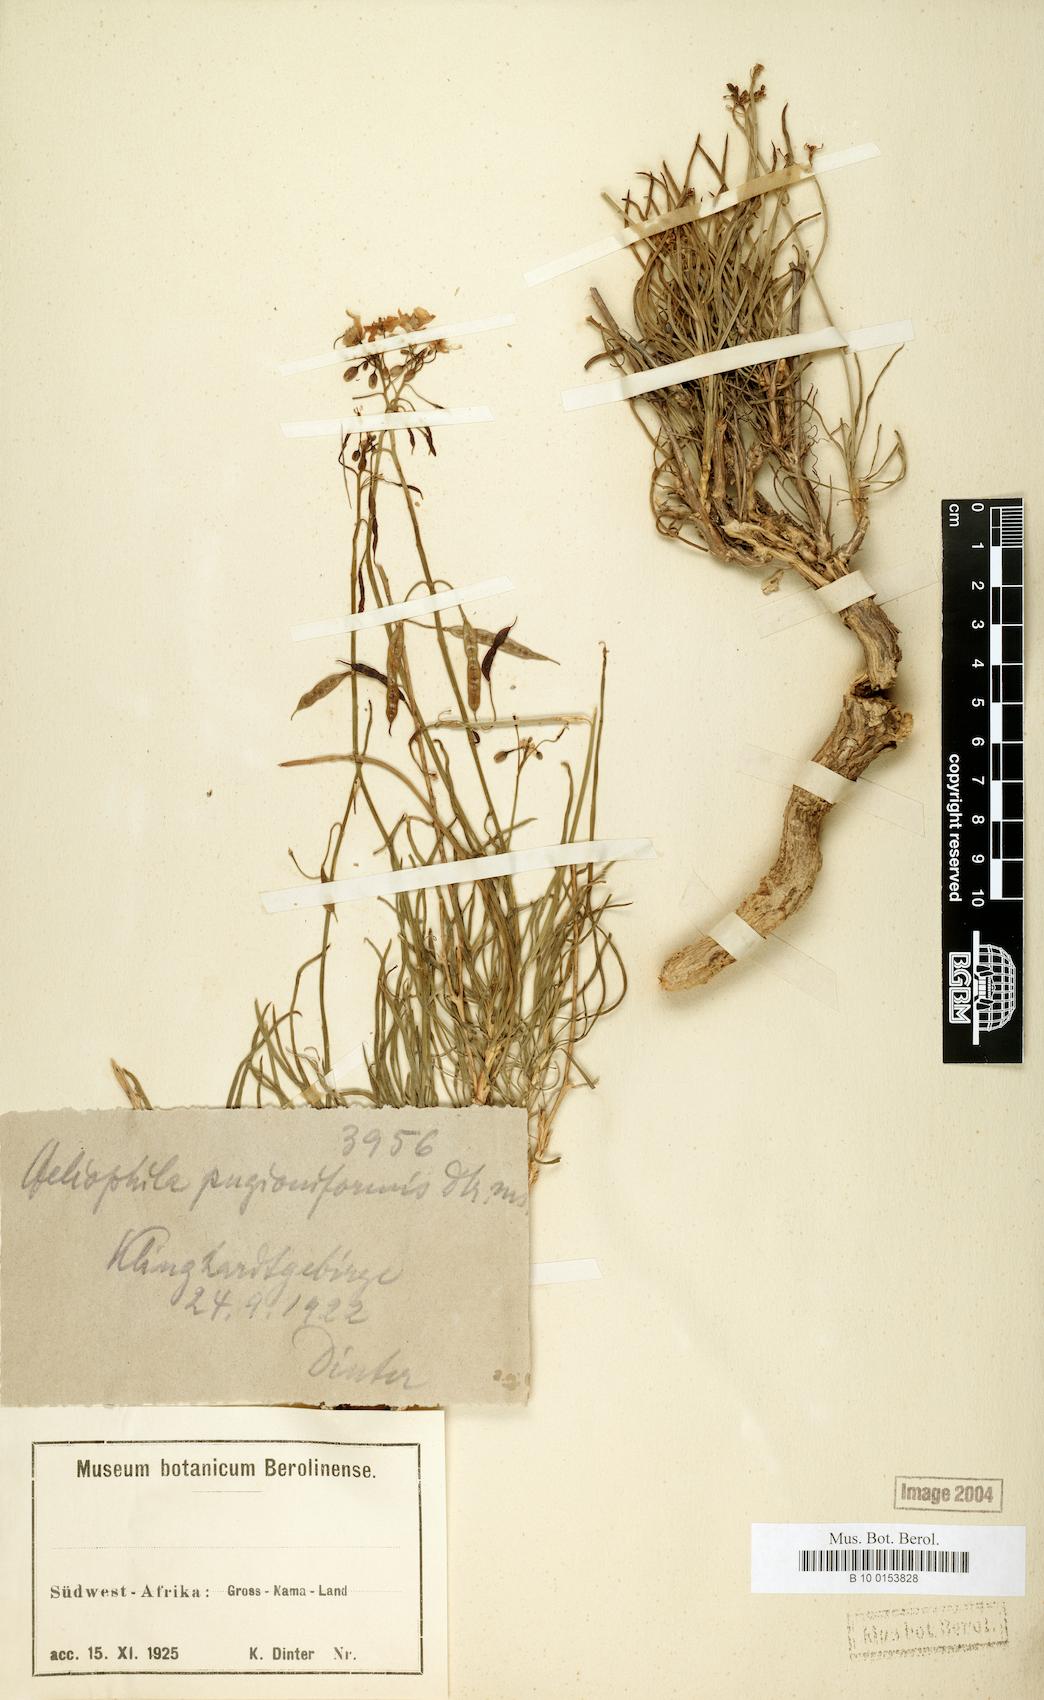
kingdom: Plantae
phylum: Tracheophyta
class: Magnoliopsida
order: Brassicales
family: Brassicaceae
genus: Heliophila
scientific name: Heliophila carnosa
